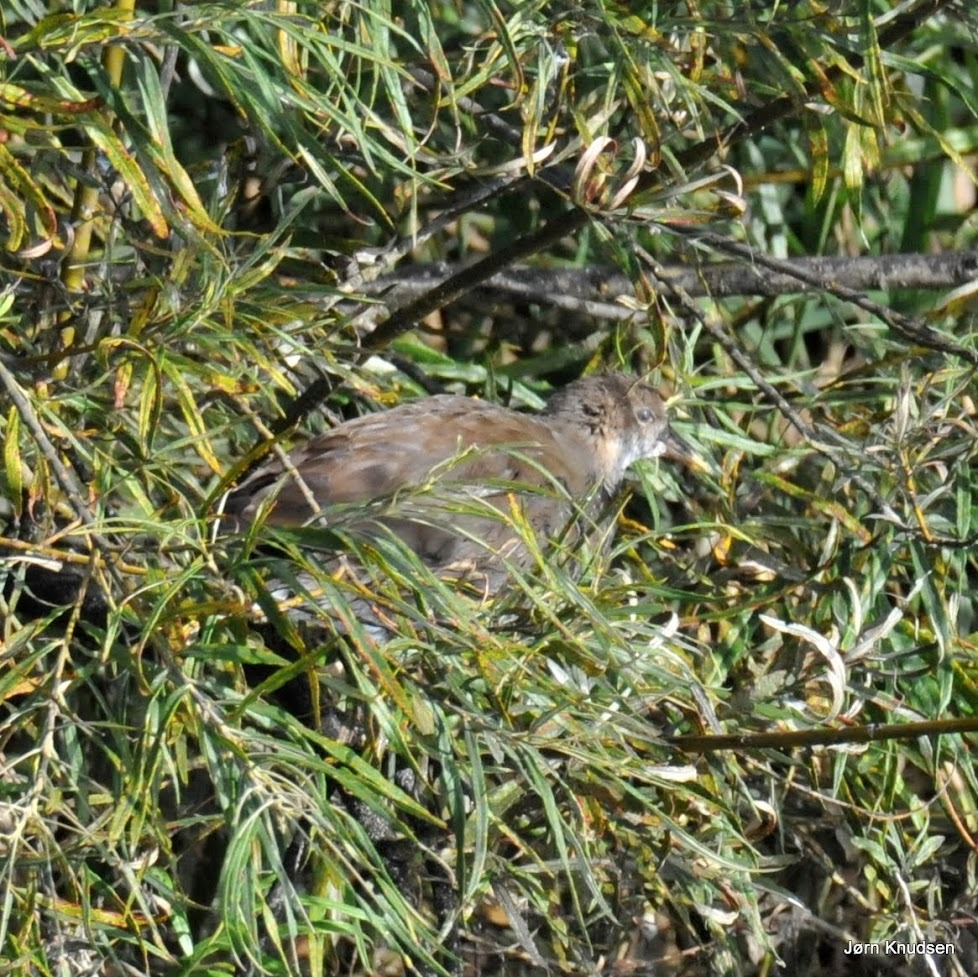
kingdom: Animalia
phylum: Chordata
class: Aves
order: Gruiformes
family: Rallidae
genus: Gallinula
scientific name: Gallinula chloropus
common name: Grønbenet rørhøne
